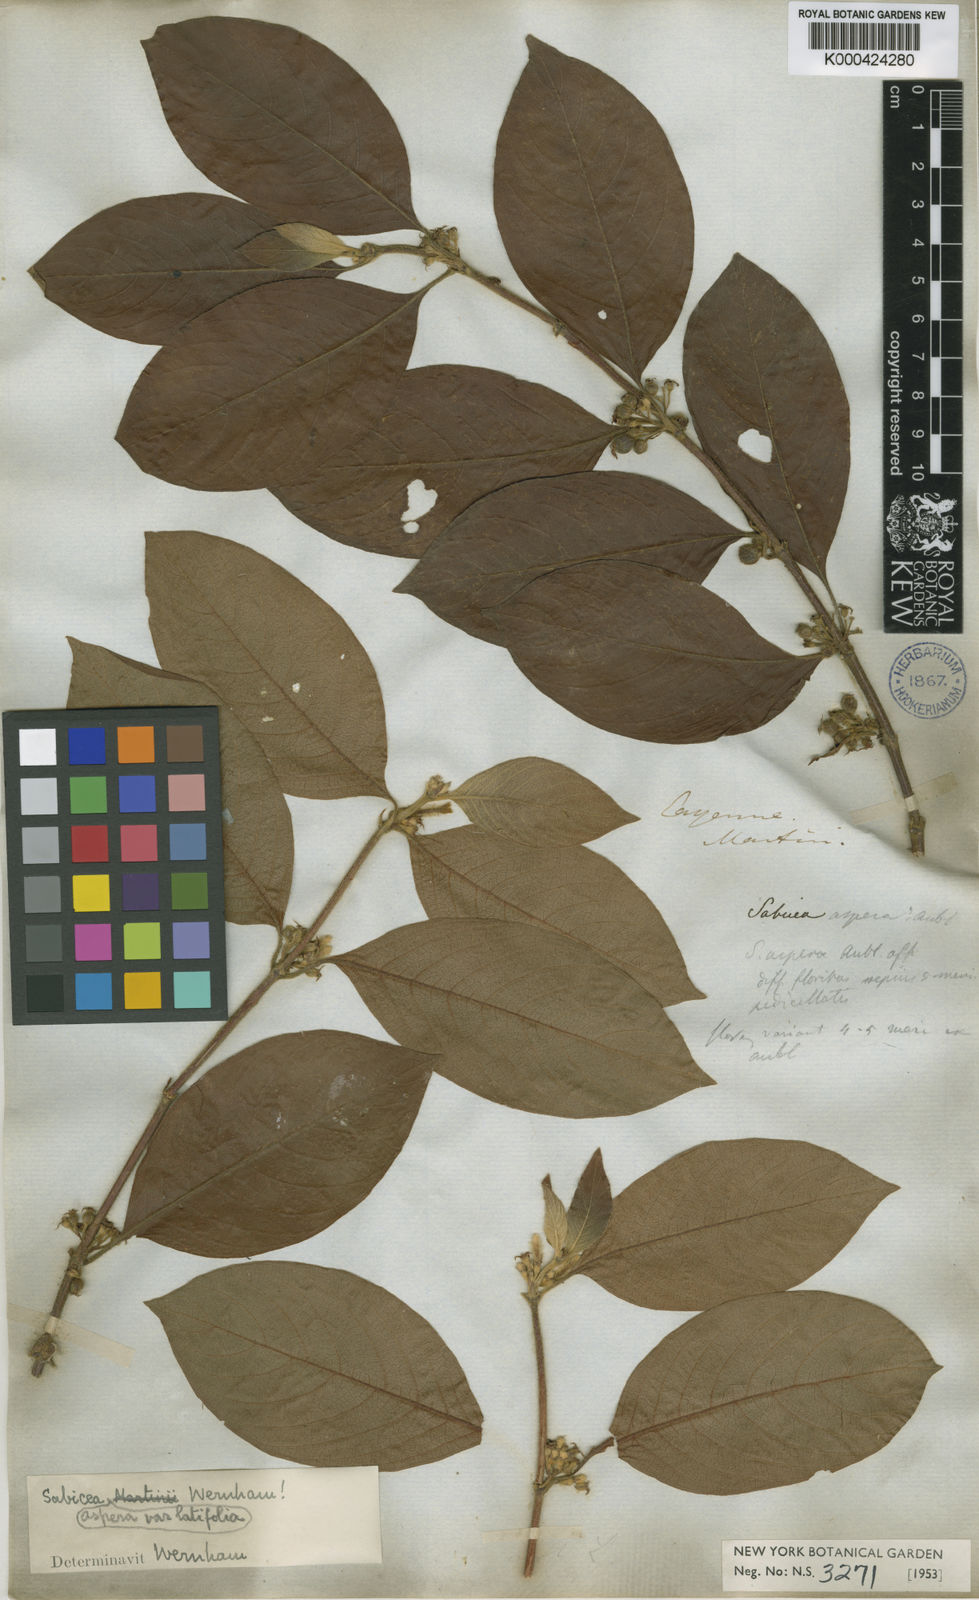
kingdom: Plantae
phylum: Tracheophyta
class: Magnoliopsida
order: Gentianales
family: Rubiaceae
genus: Sabicea
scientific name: Sabicea aspera
